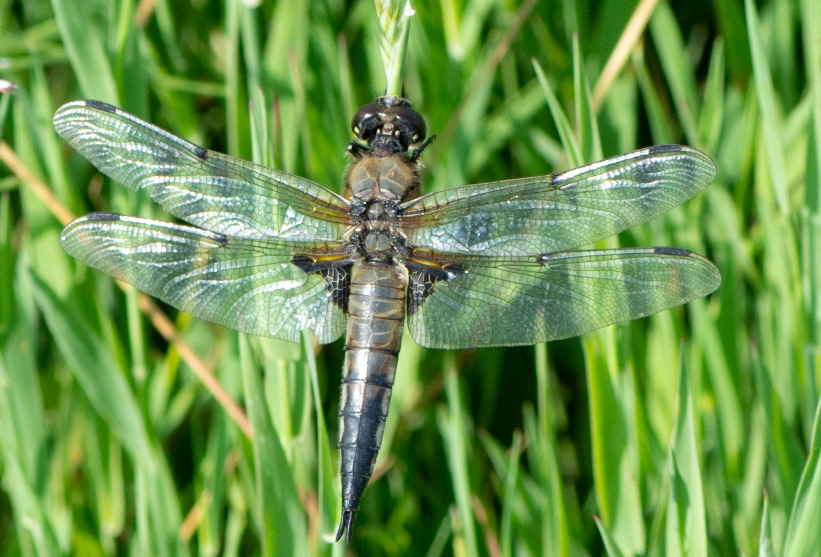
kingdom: Animalia
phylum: Arthropoda
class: Insecta
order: Odonata
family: Libellulidae
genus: Libellula
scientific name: Libellula quadrimaculata
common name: Fireplettet libel
